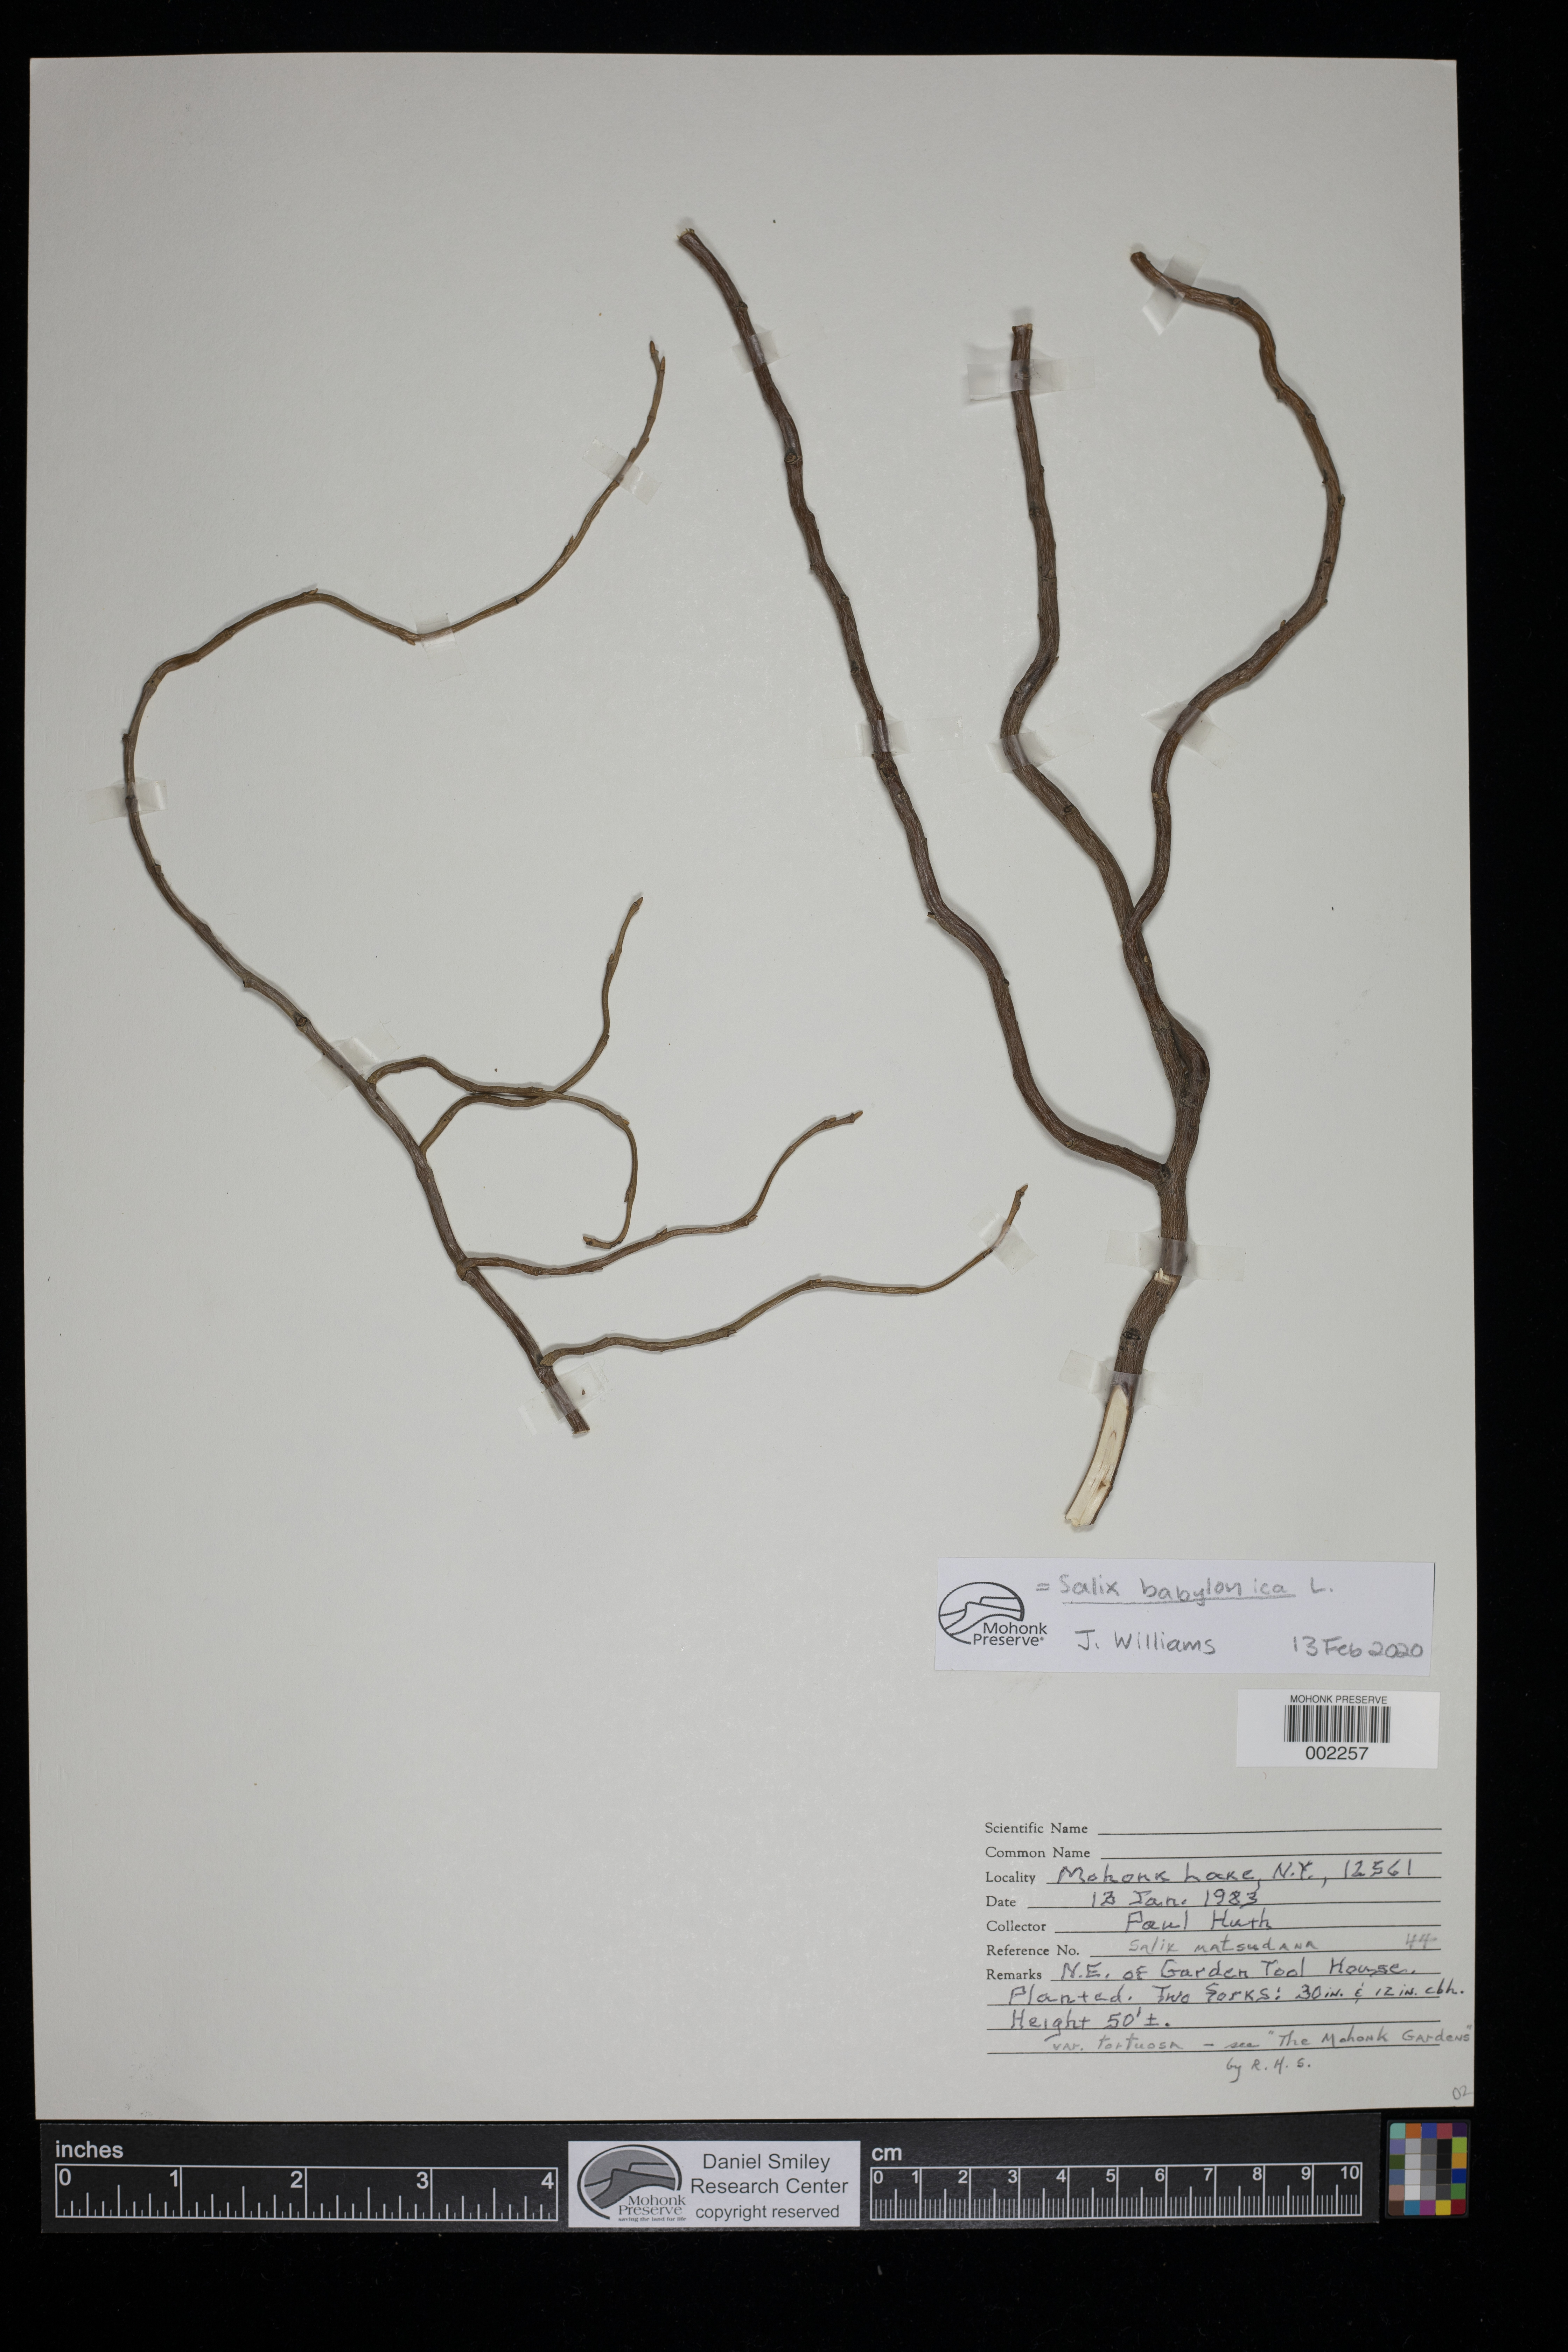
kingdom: Plantae
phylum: Tracheophyta
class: Magnoliopsida
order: Malpighiales
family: Salicaceae
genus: Salix
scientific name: Salix babylonica
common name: Weeping willow
